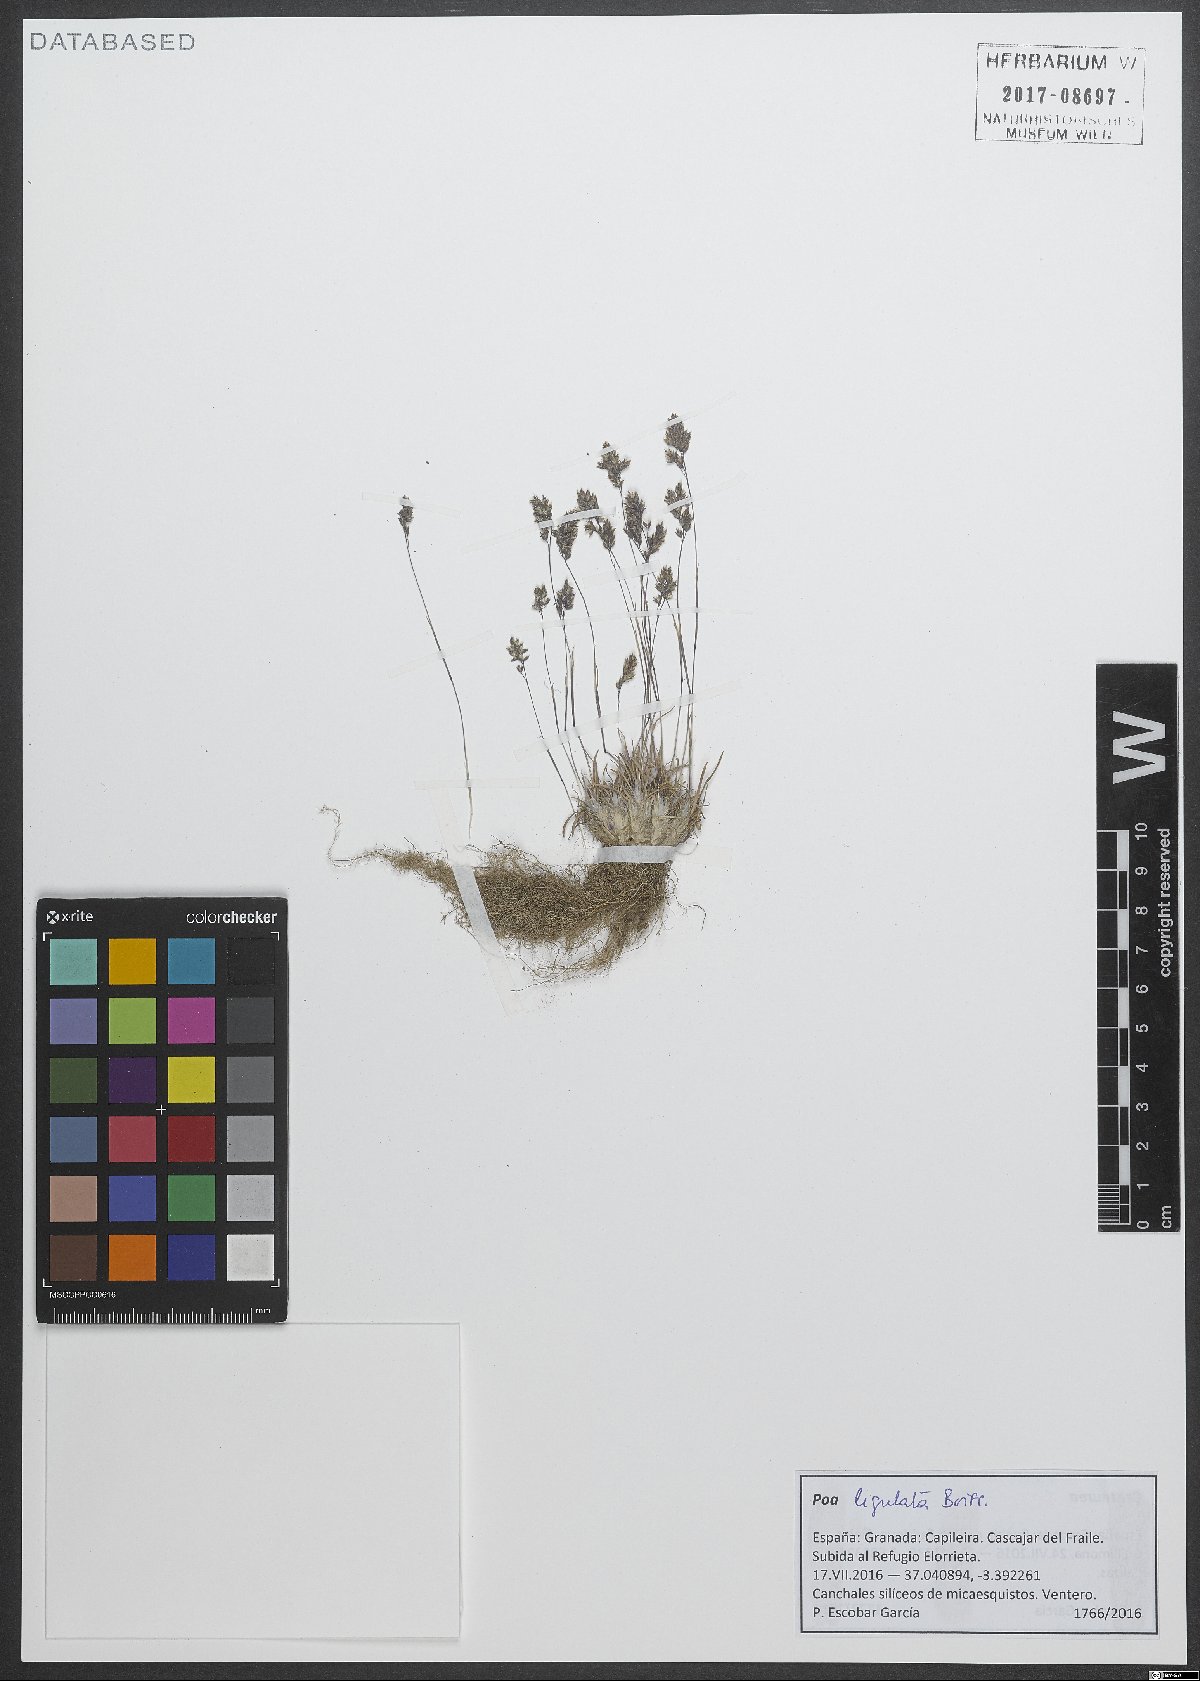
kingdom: Plantae
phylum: Tracheophyta
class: Liliopsida
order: Poales
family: Poaceae
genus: Poa
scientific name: Poa ligulata
